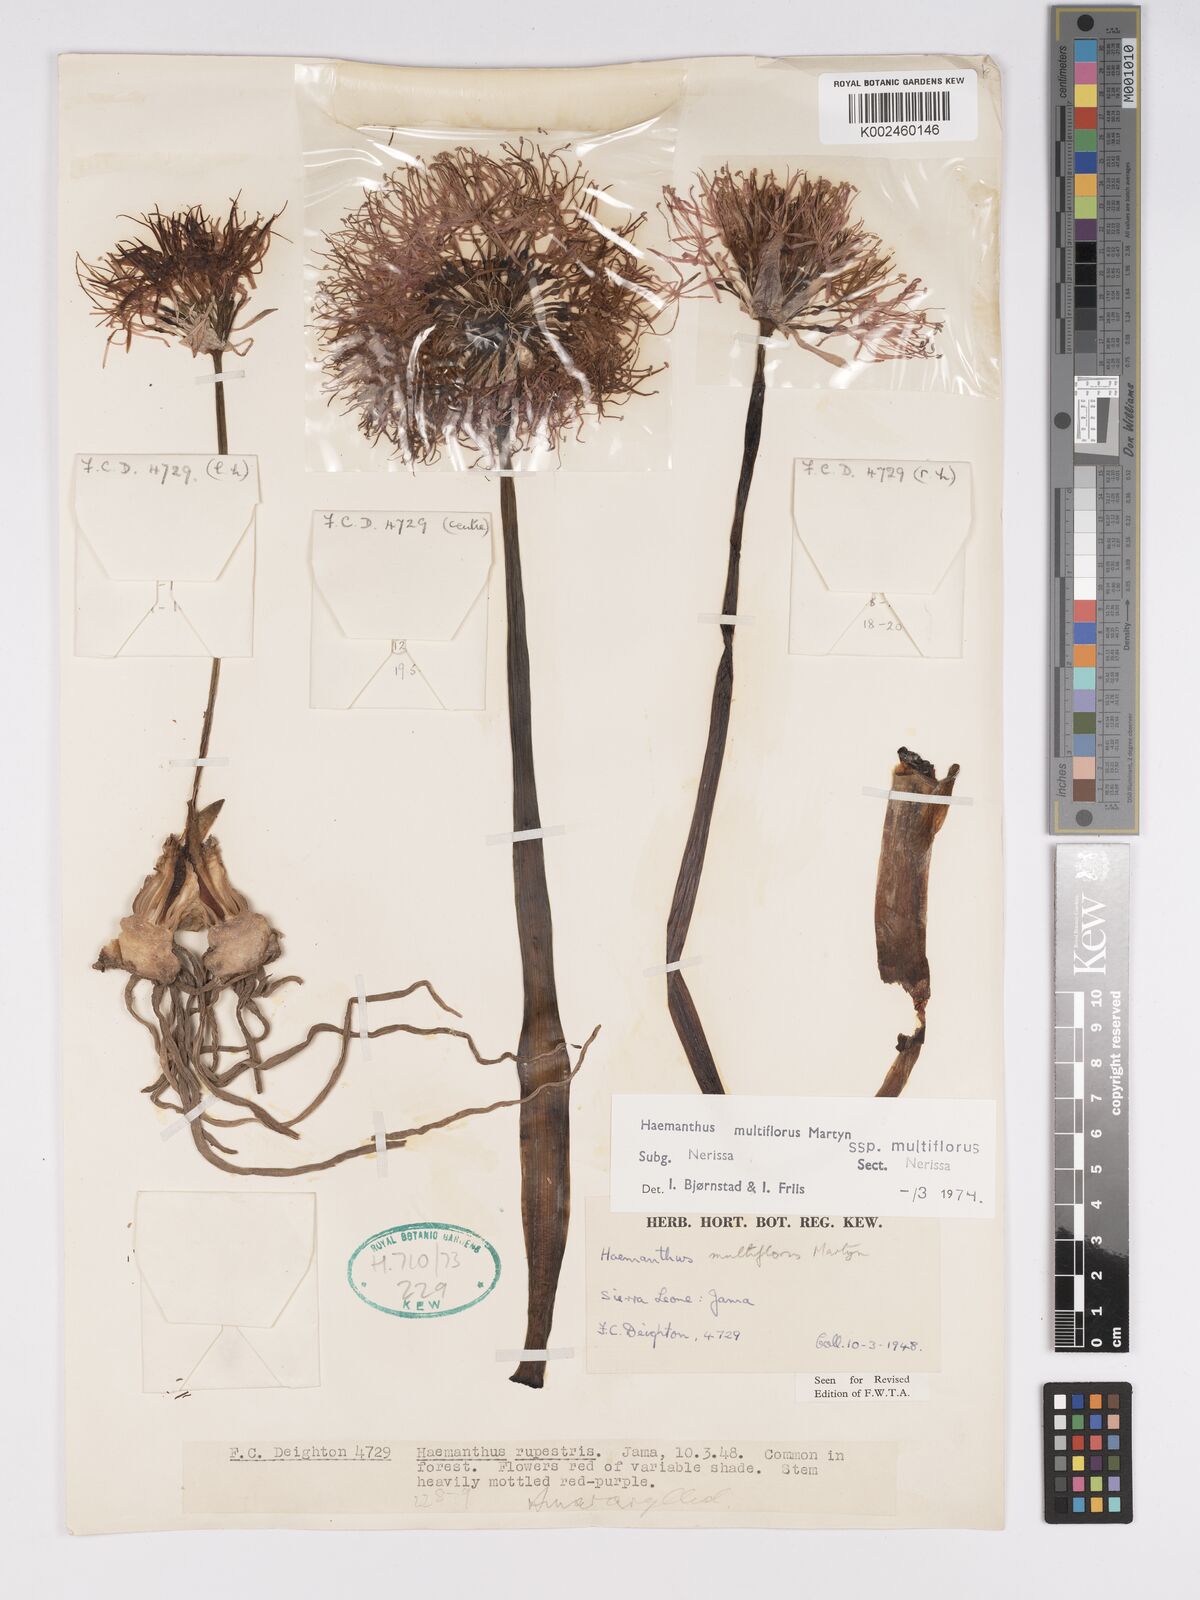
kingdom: Plantae
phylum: Tracheophyta
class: Liliopsida
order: Asparagales
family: Amaryllidaceae
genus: Scadoxus
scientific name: Scadoxus multiflorus
